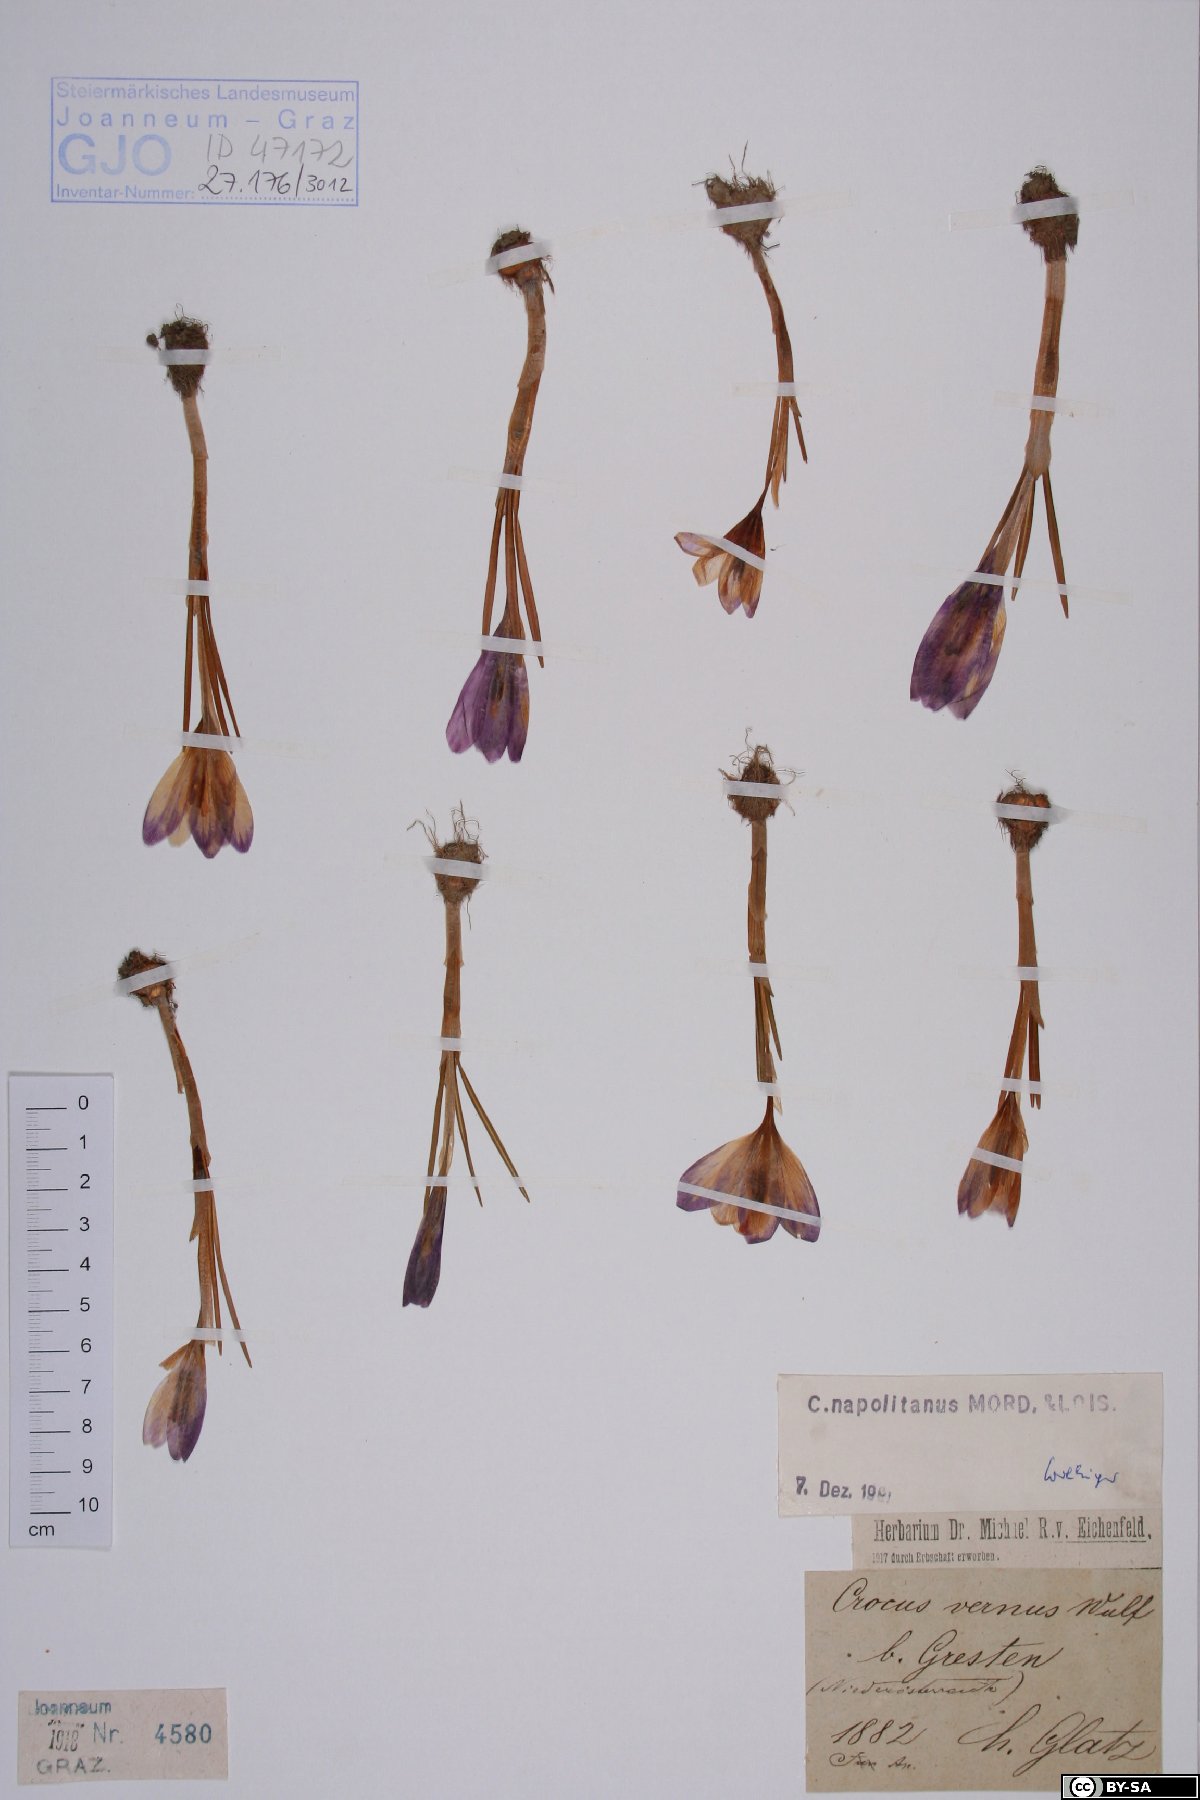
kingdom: Plantae
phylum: Tracheophyta
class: Liliopsida
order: Asparagales
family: Iridaceae
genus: Crocus
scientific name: Crocus vernus
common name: Spring crocus
